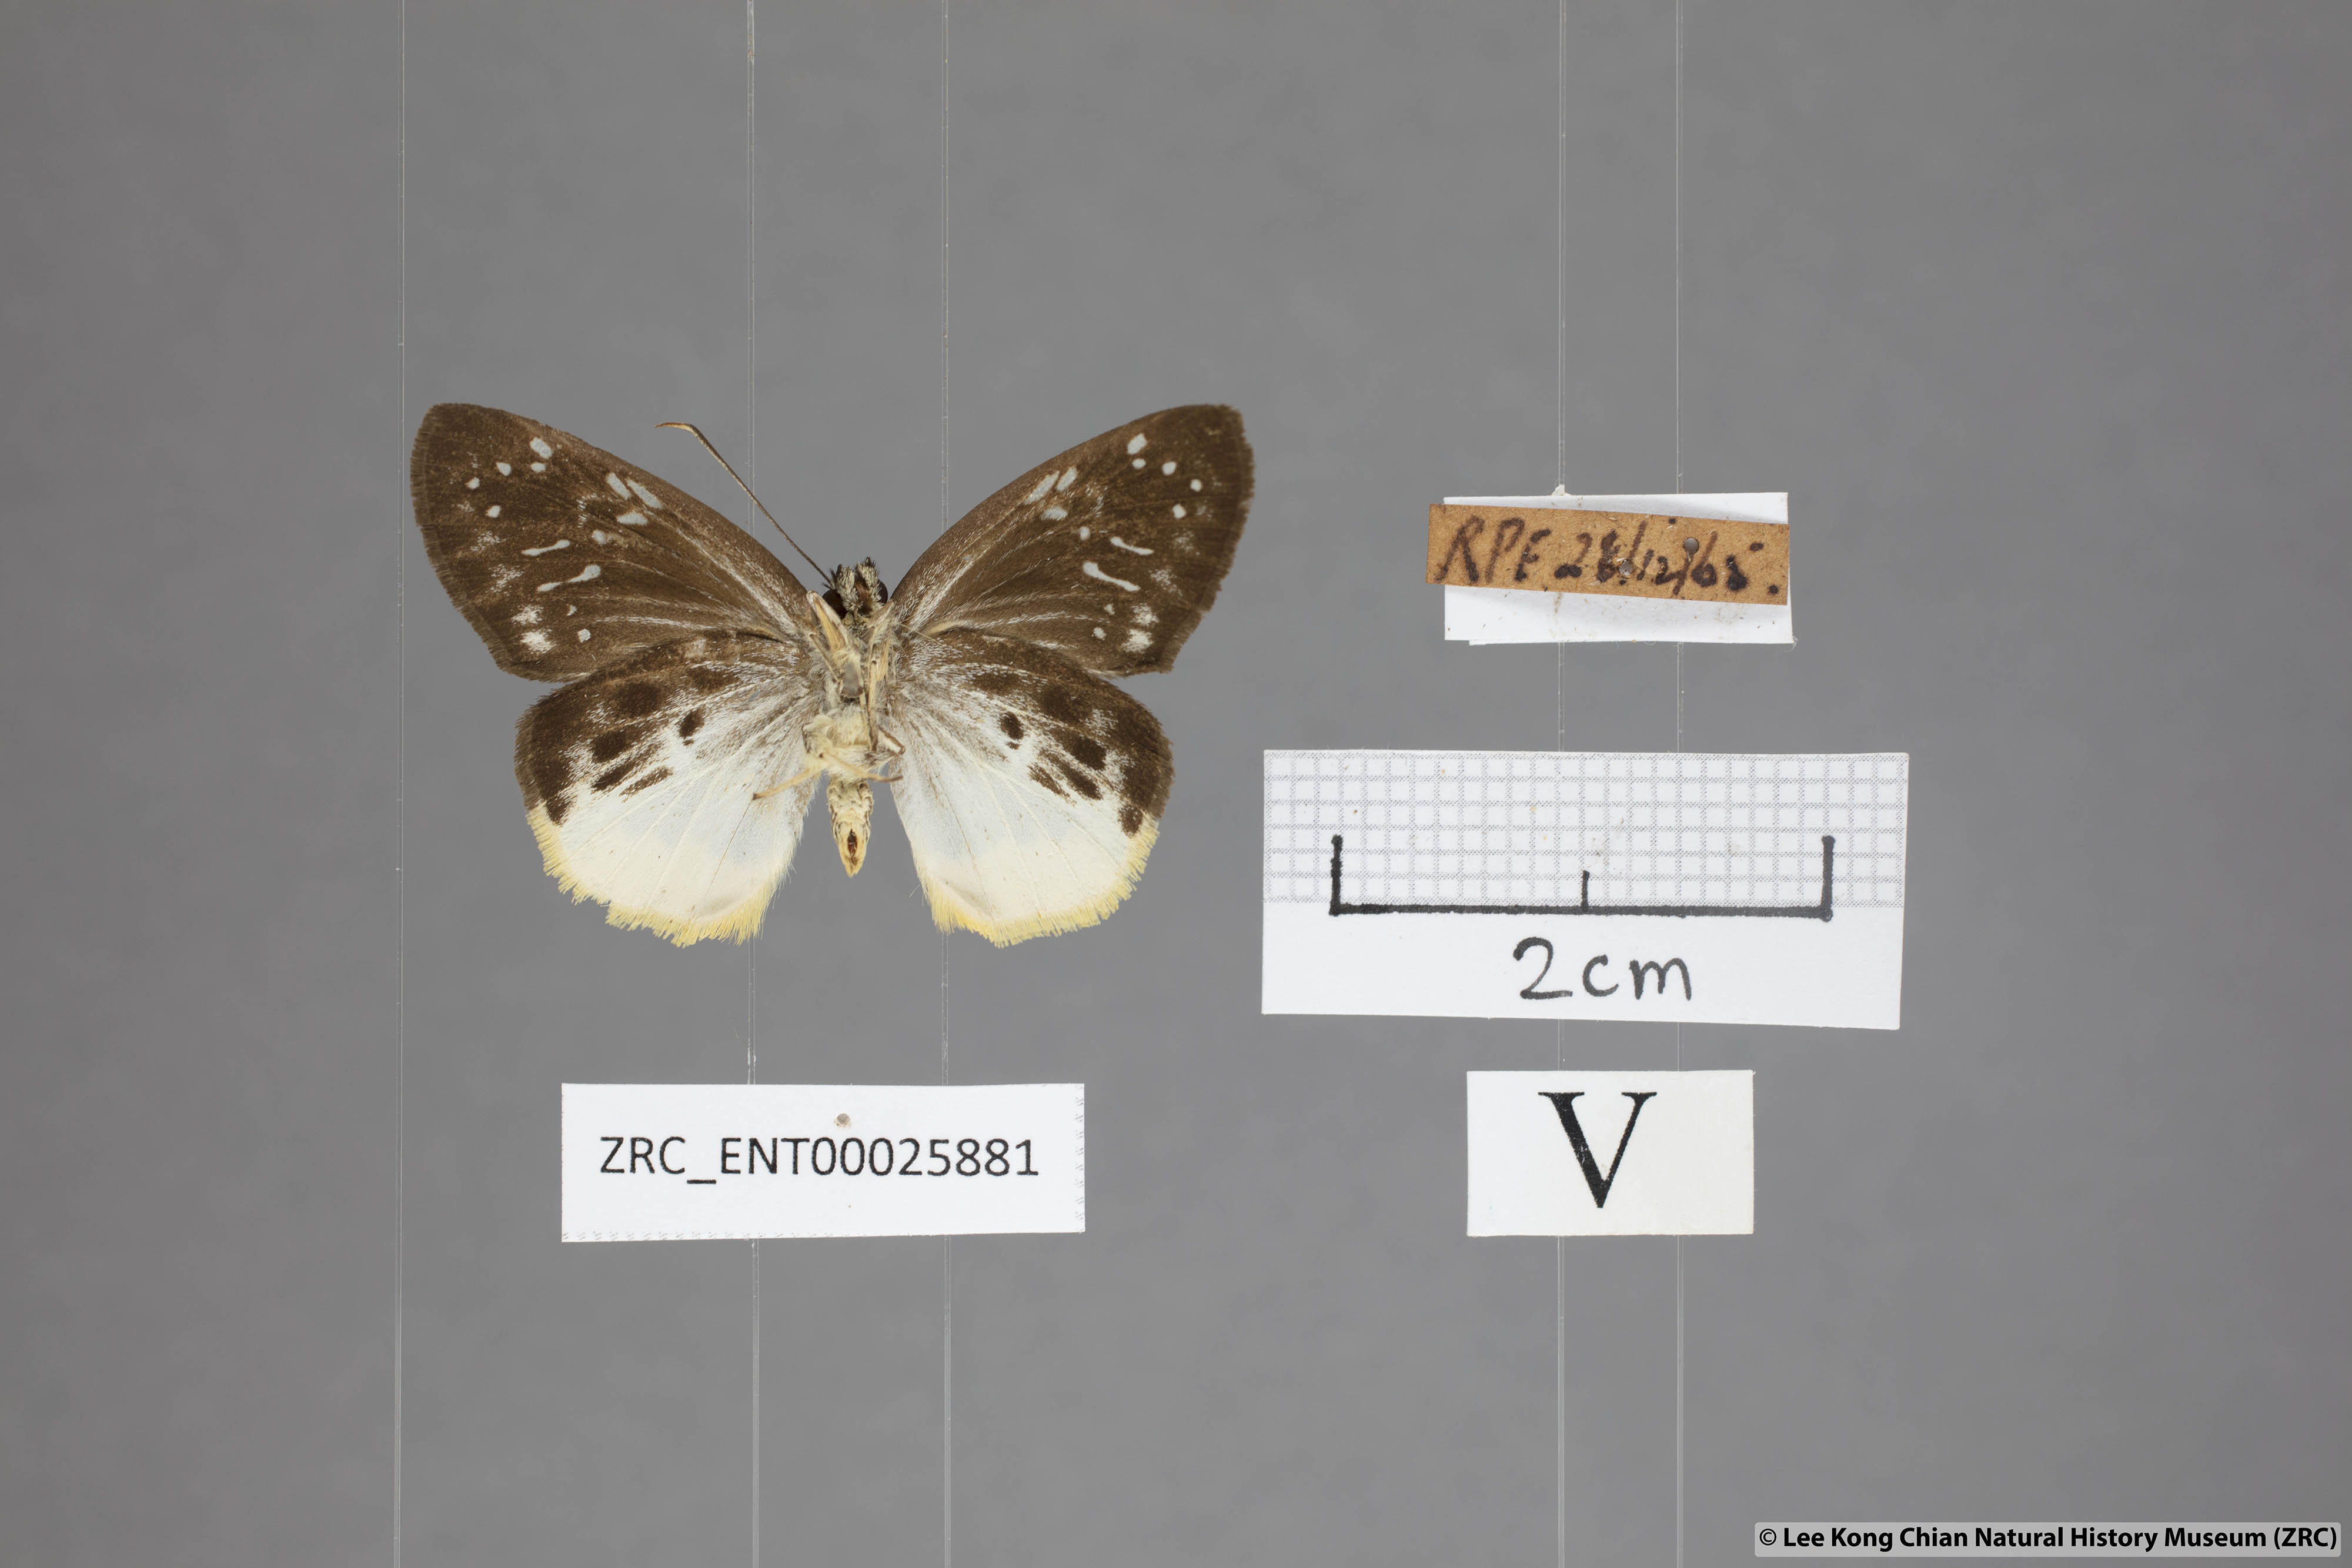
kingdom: Animalia
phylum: Arthropoda
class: Insecta
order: Lepidoptera
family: Hesperiidae
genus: Mooreana
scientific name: Mooreana trichoneura
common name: Yellow flat
